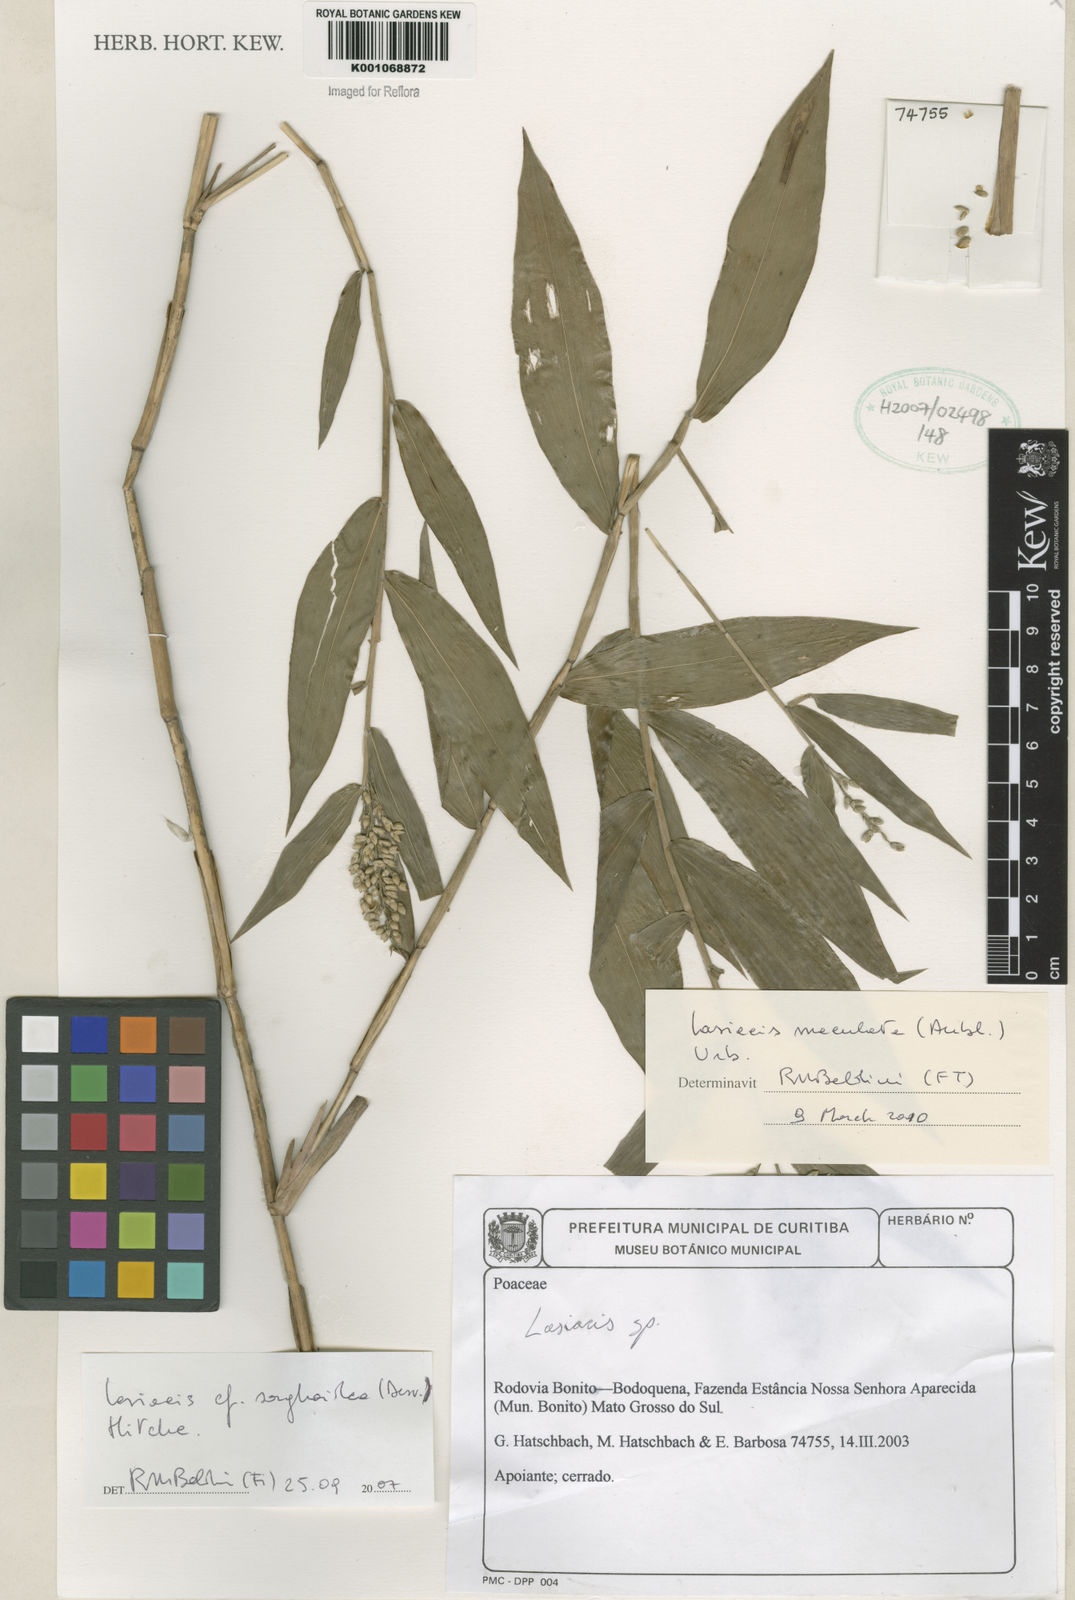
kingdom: Plantae
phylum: Tracheophyta
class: Liliopsida
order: Poales
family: Poaceae
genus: Lasiacis
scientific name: Lasiacis maculata
